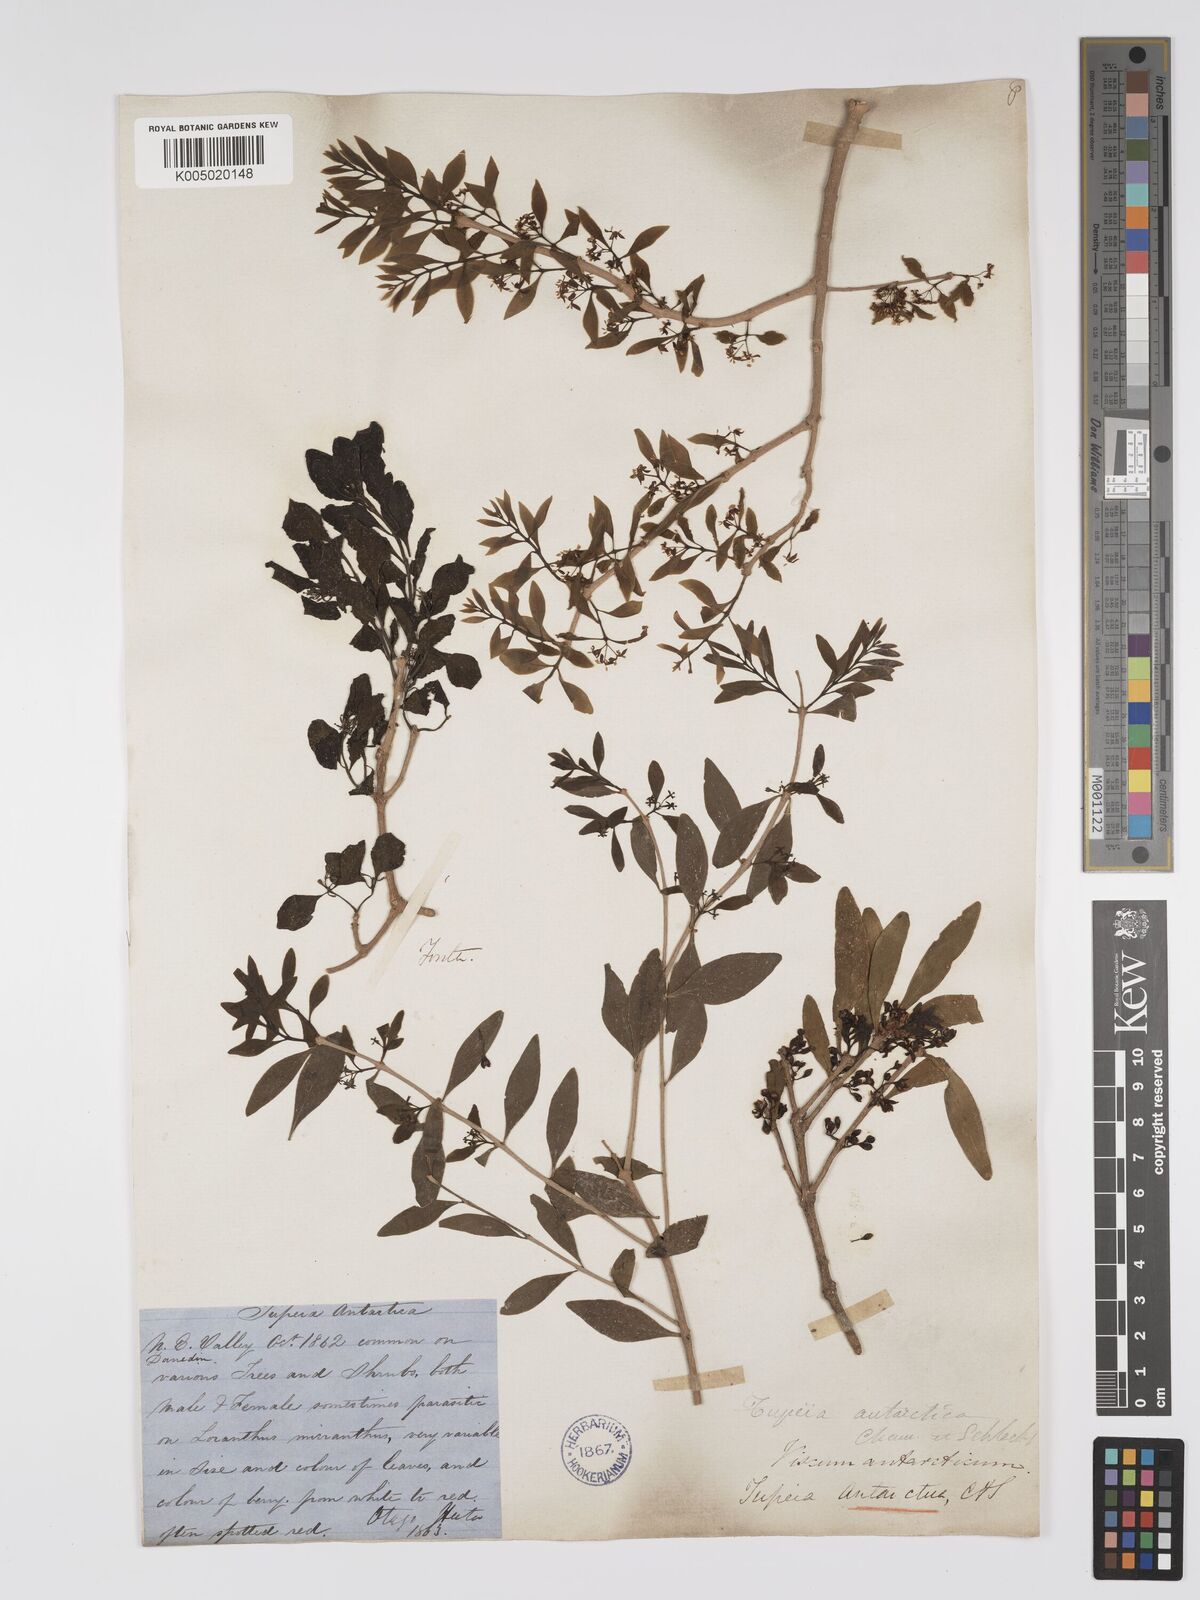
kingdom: Plantae
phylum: Tracheophyta
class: Magnoliopsida
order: Santalales
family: Loranthaceae
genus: Tupeia
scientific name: Tupeia antarctica
